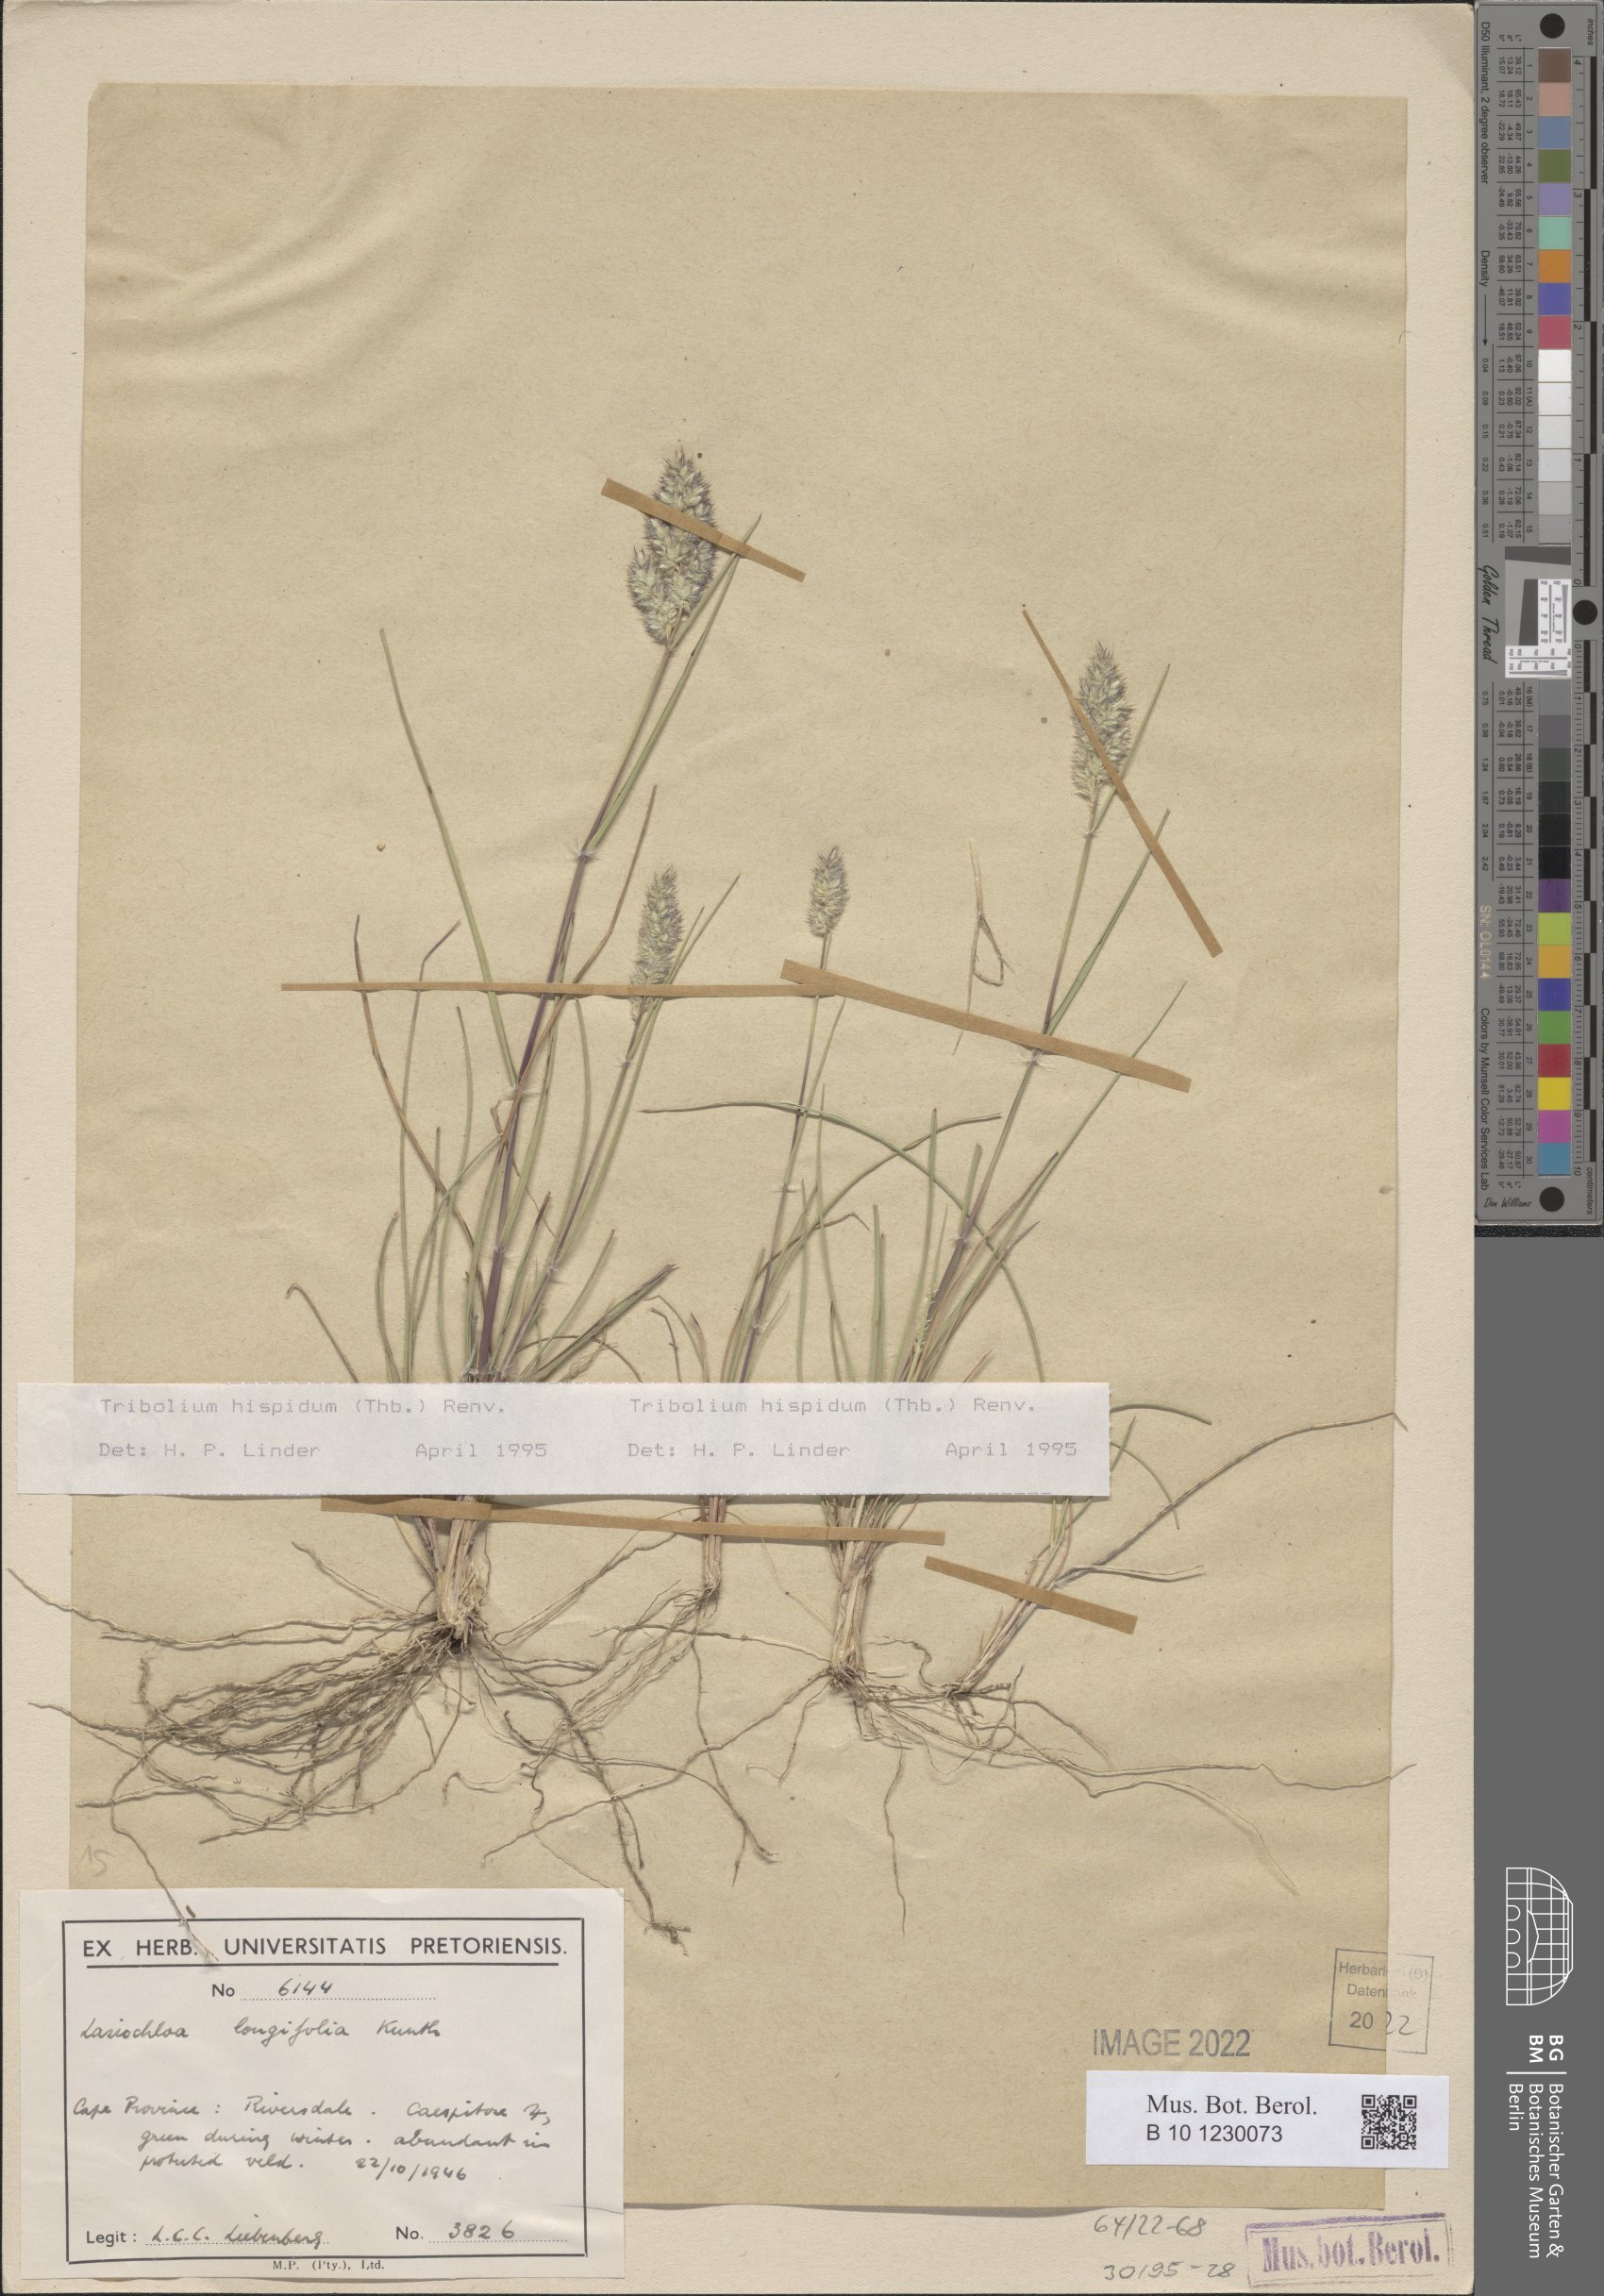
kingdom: Plantae
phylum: Tracheophyta
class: Liliopsida
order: Poales
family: Poaceae
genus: Tribolium
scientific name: Tribolium hispidum
